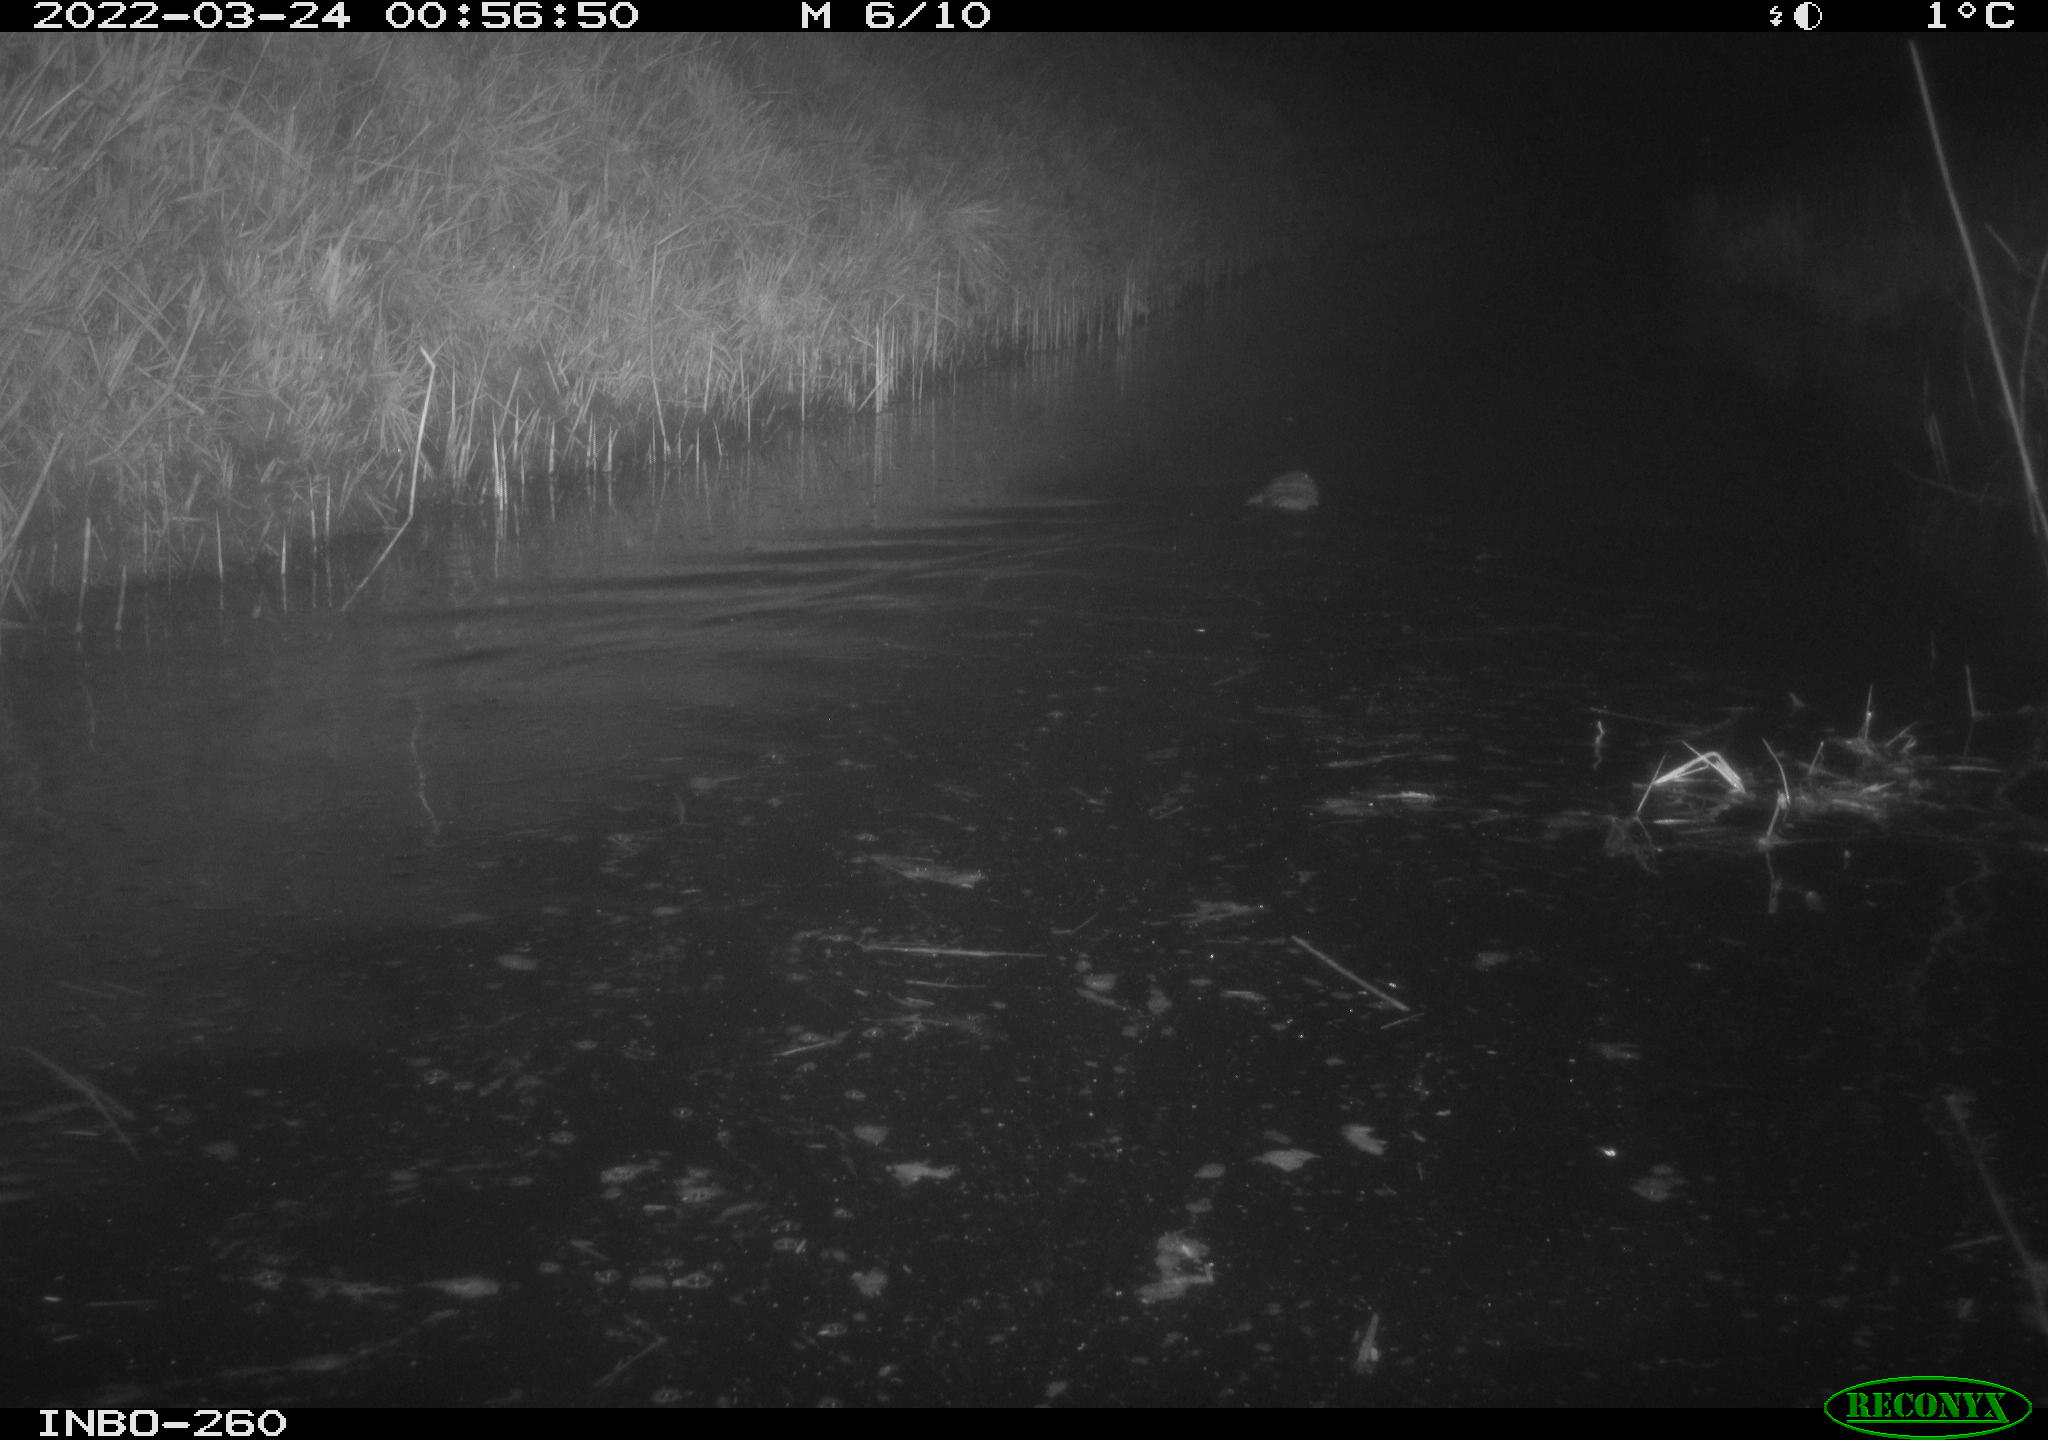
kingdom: Animalia
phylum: Chordata
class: Mammalia
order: Rodentia
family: Cricetidae
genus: Ondatra
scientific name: Ondatra zibethicus
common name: Muskrat
